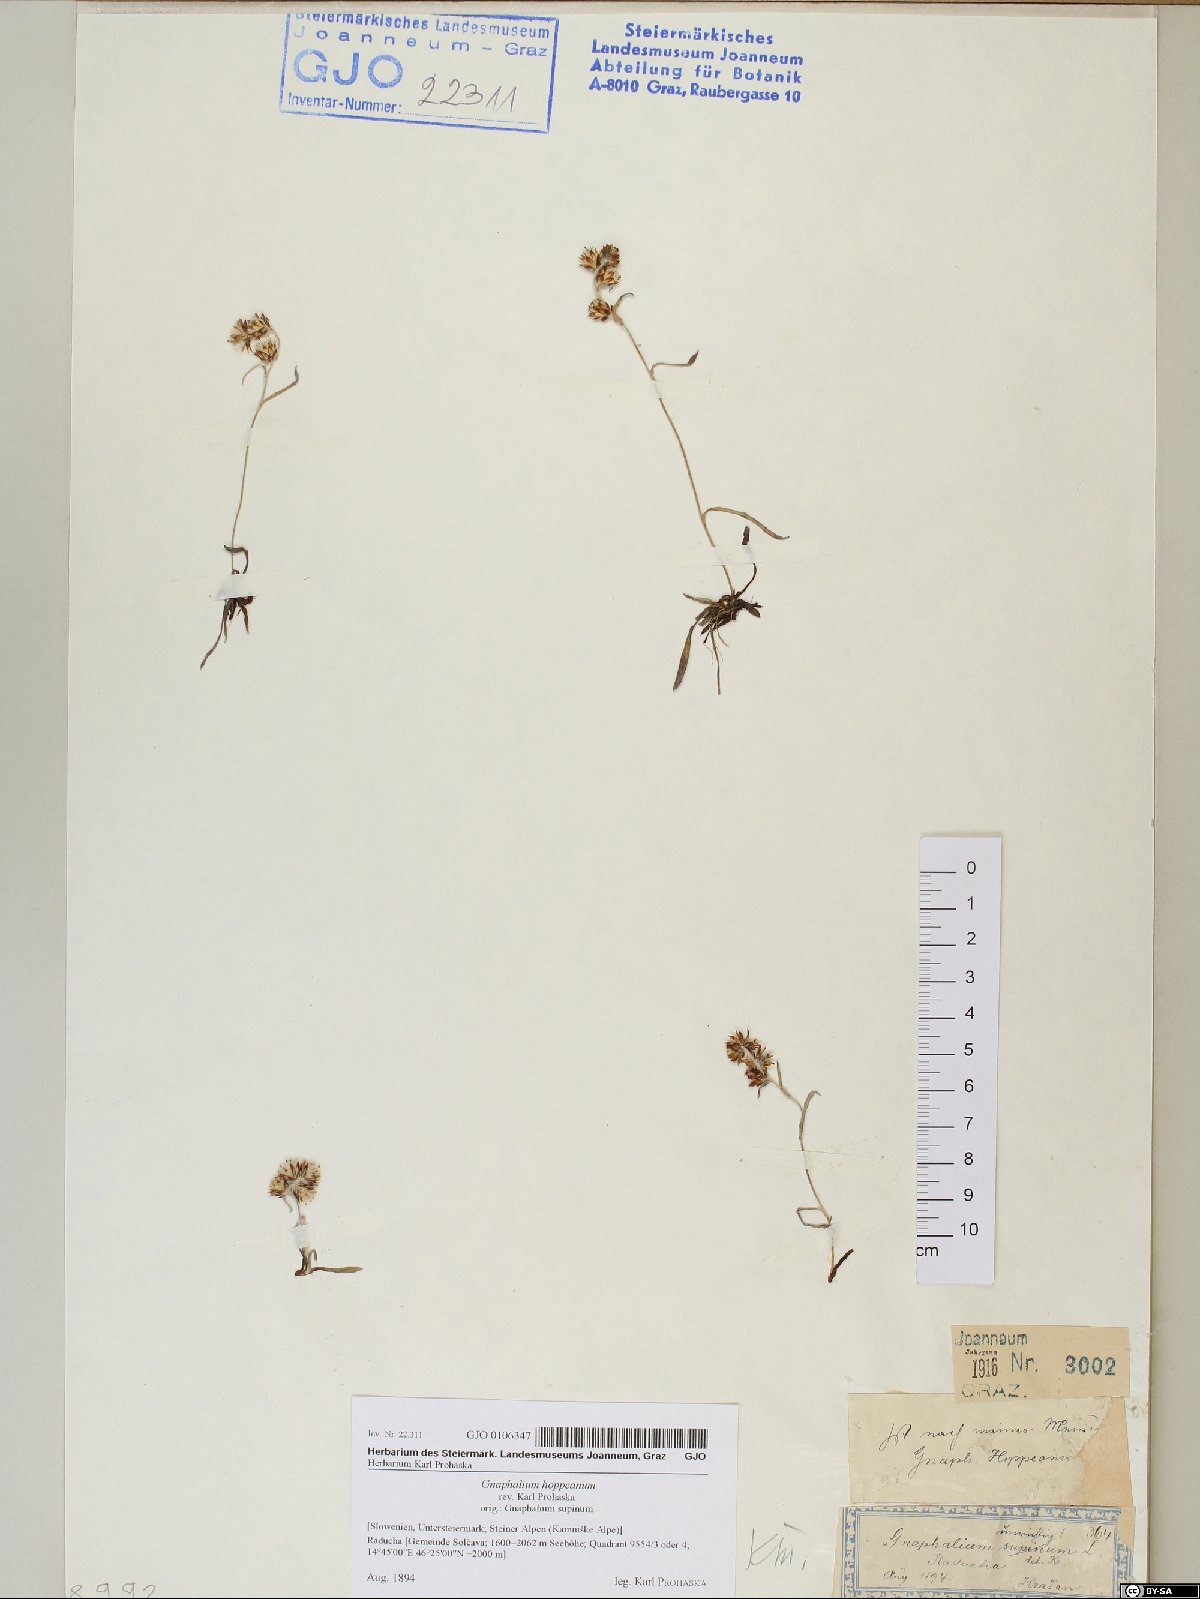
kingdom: Plantae
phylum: Tracheophyta
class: Magnoliopsida
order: Asterales
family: Asteraceae
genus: Omalotheca
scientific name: Omalotheca hoppeana
